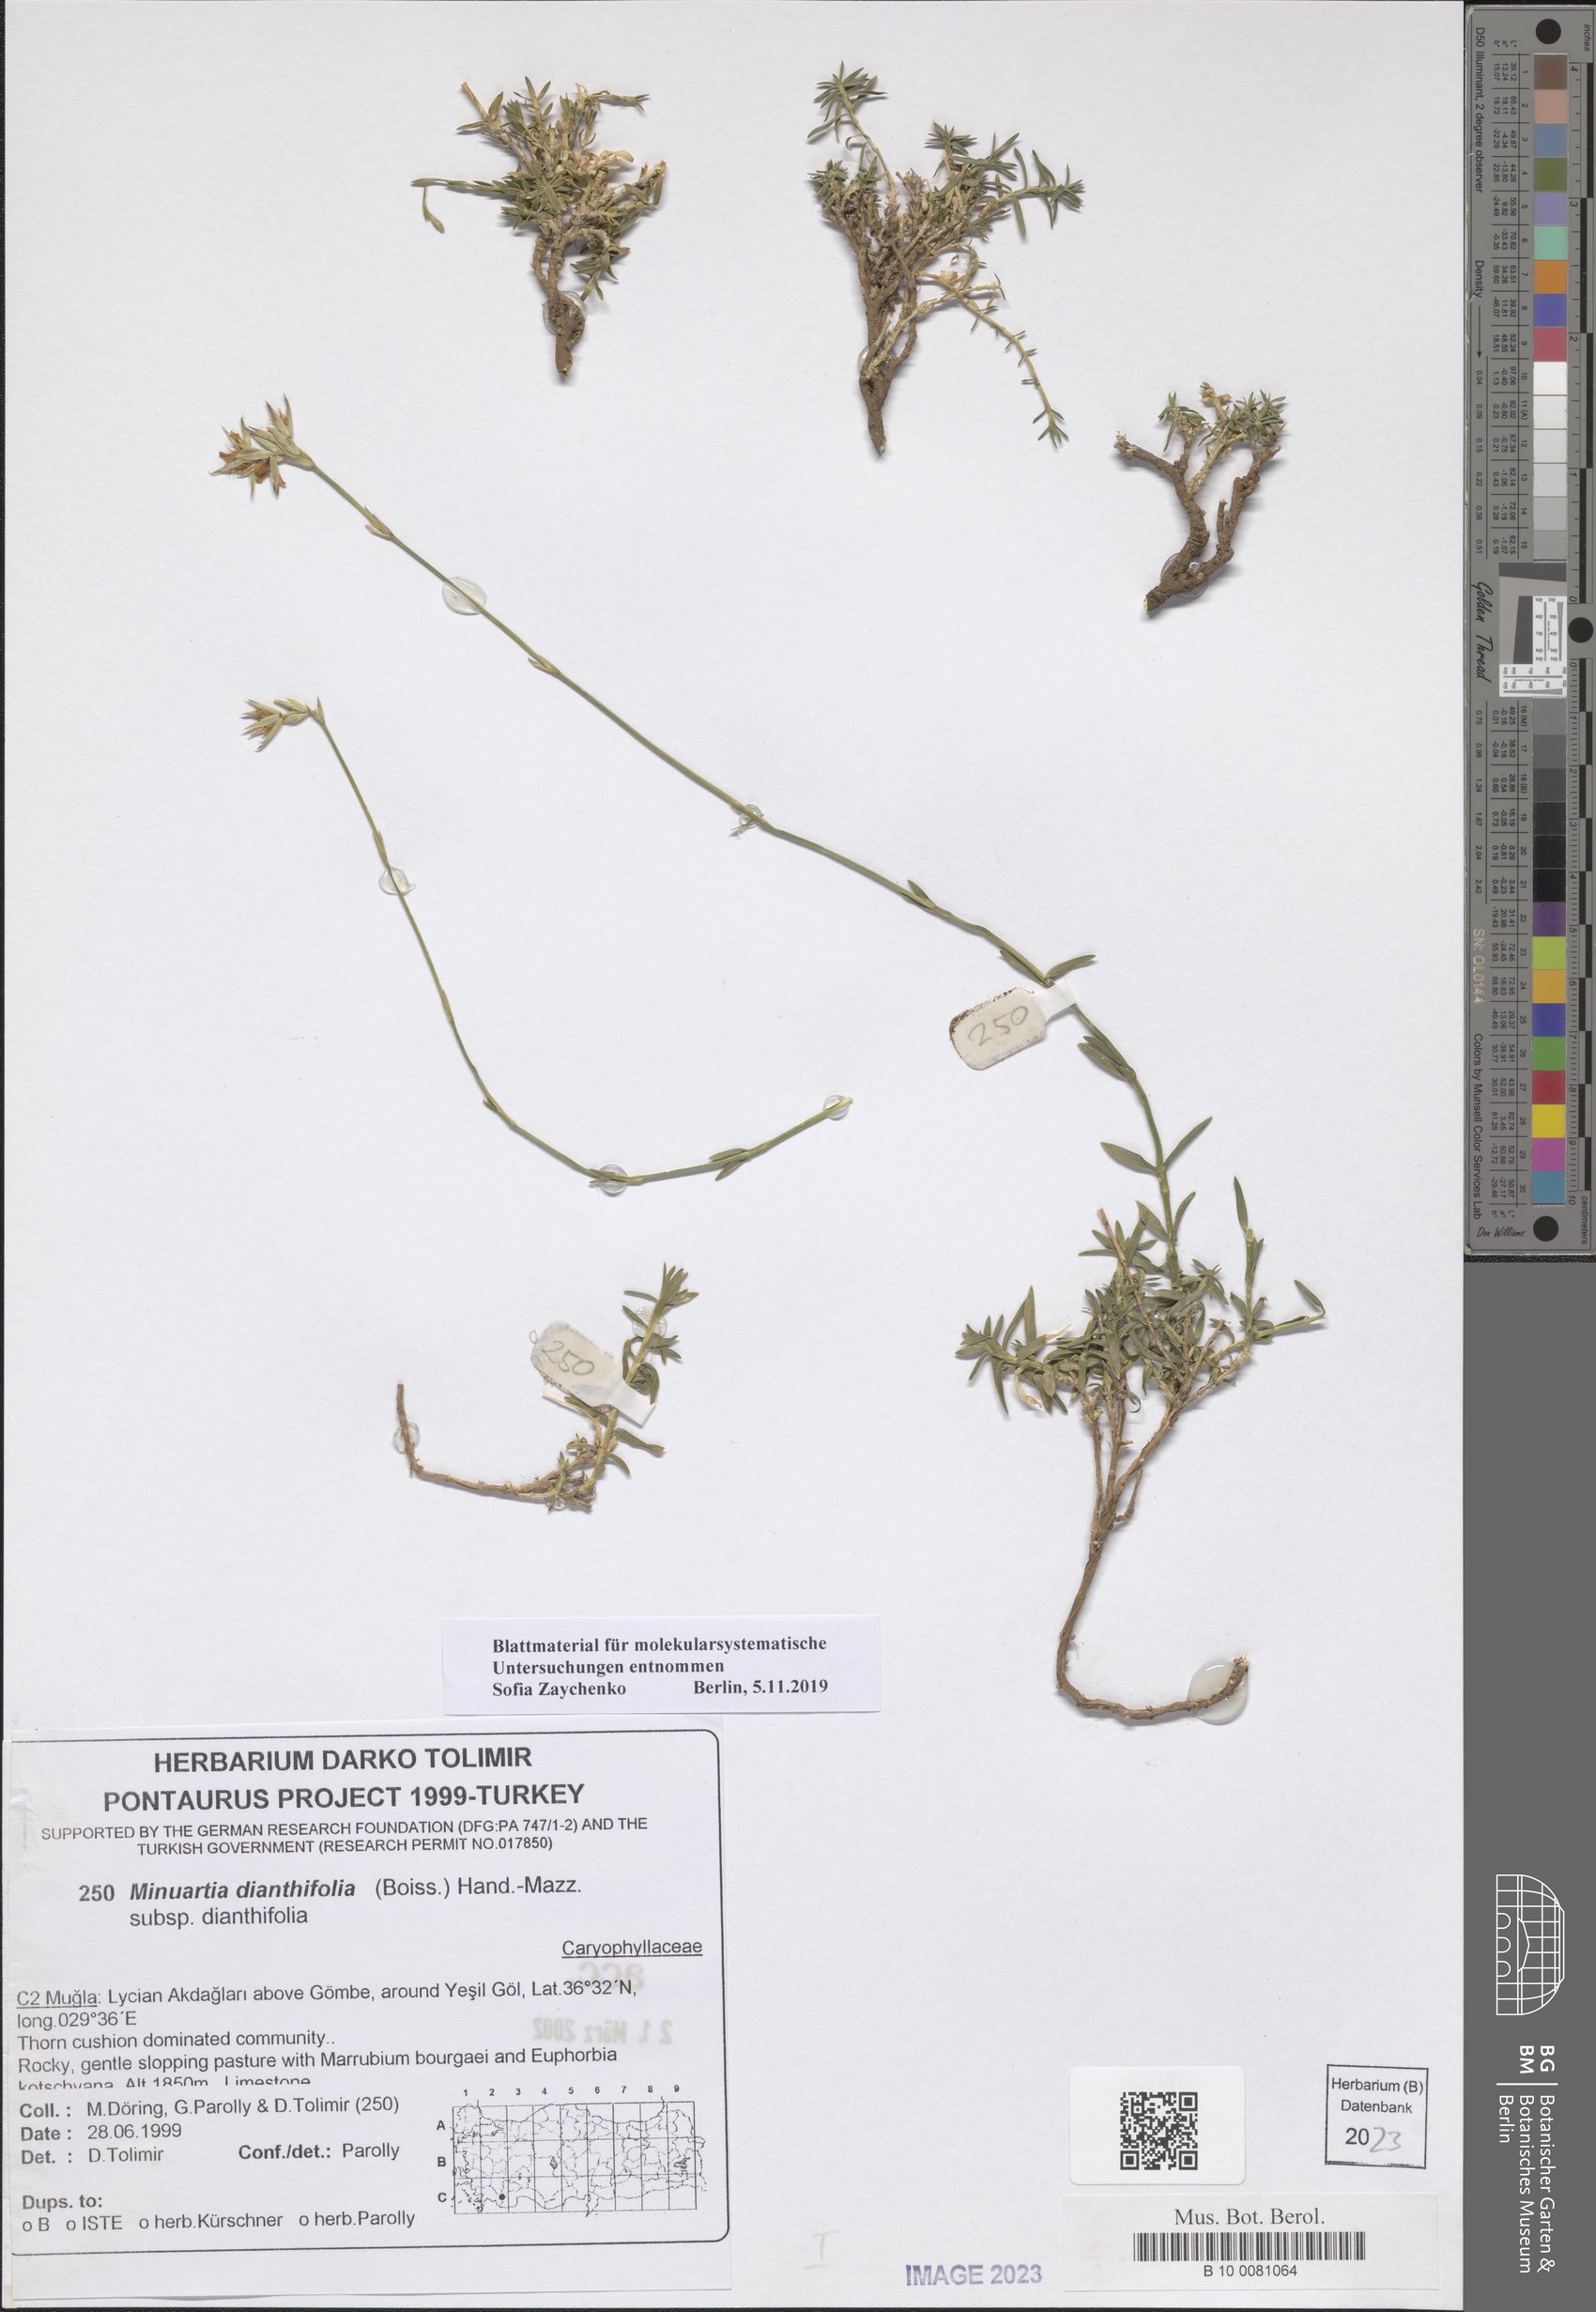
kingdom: Plantae
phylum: Tracheophyta
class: Magnoliopsida
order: Caryophyllales
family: Caryophyllaceae
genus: Minuartiella
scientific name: Minuartiella dianthifolia
